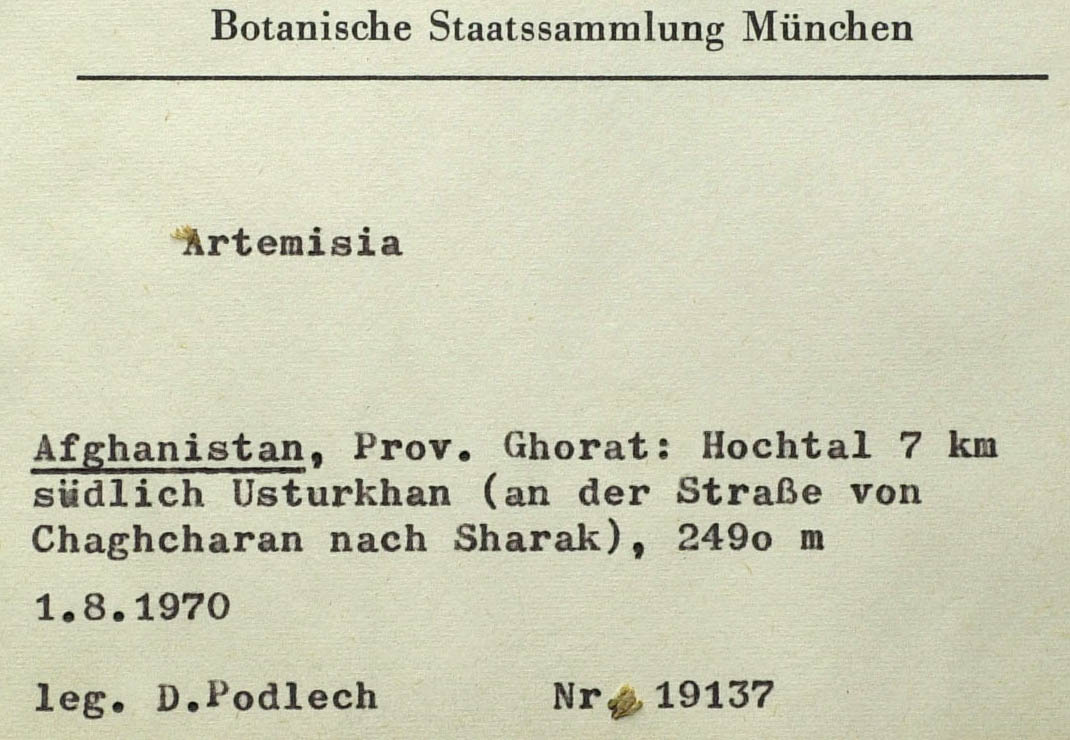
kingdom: Plantae
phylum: Tracheophyta
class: Magnoliopsida
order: Asterales
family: Asteraceae
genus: Artemisia
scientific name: Artemisia ghoratensis
